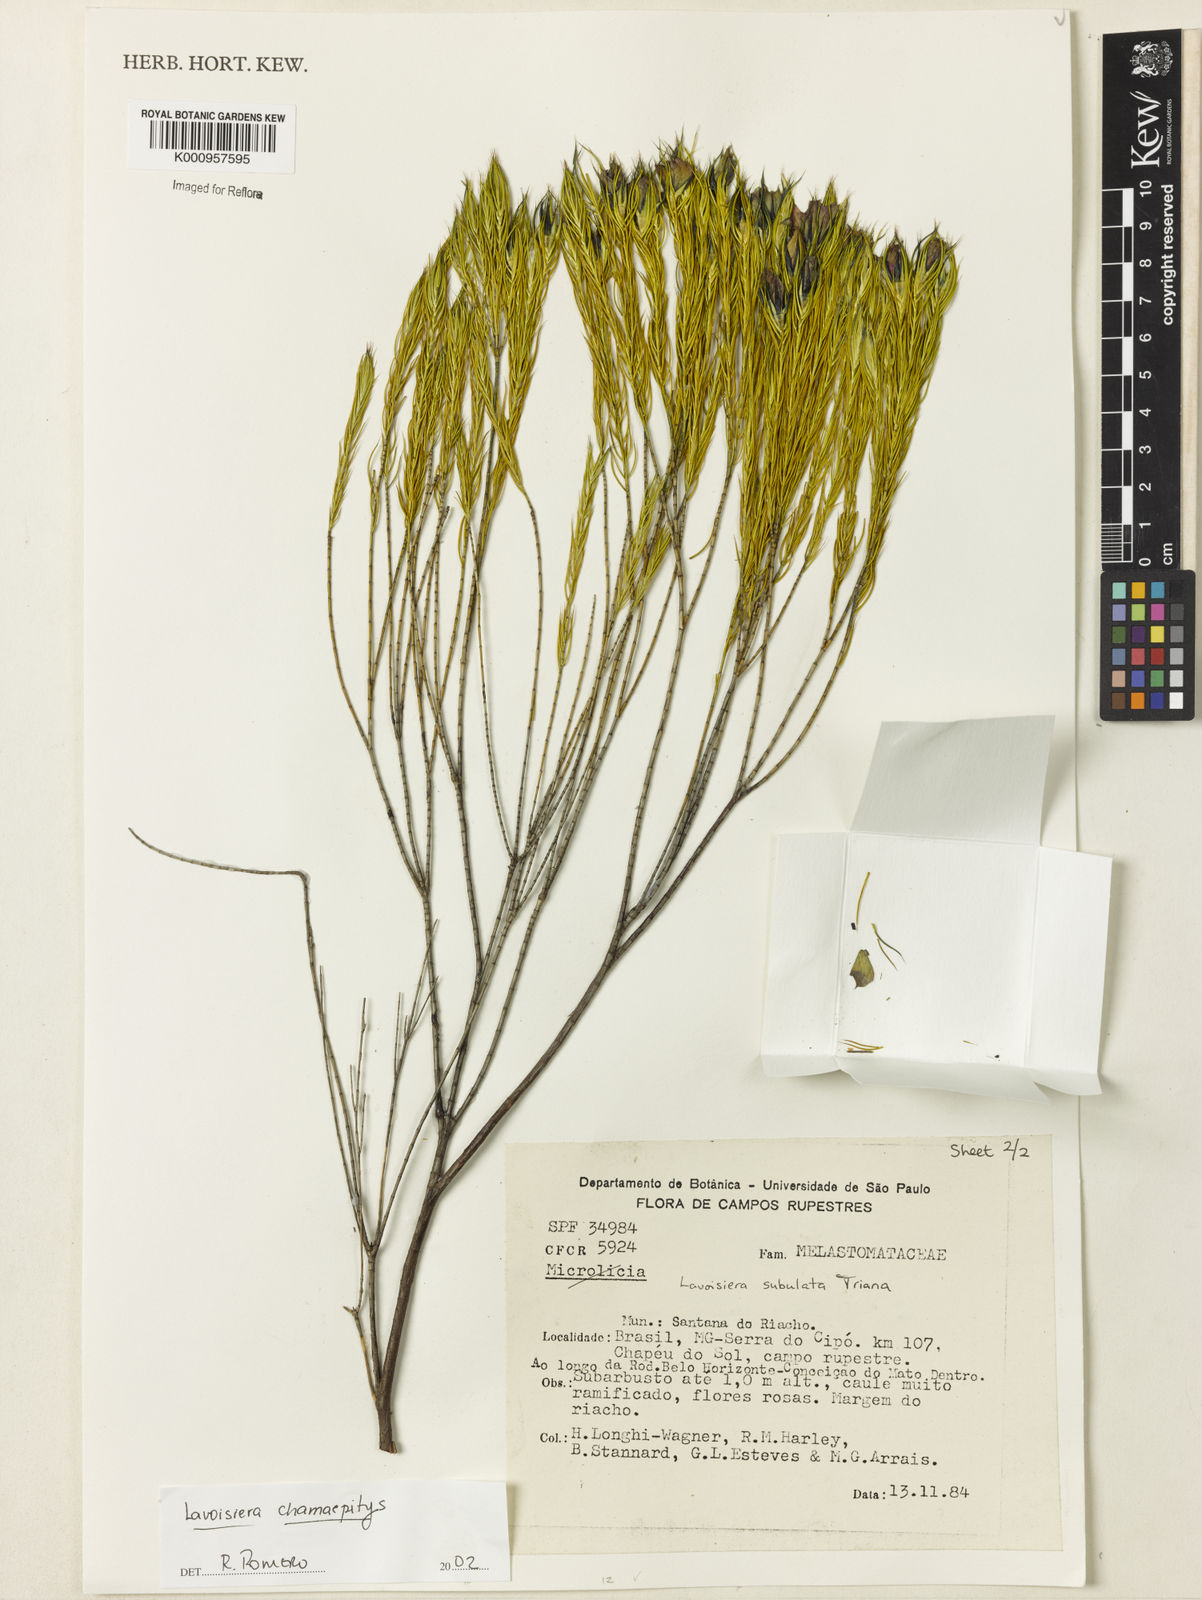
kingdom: Plantae
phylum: Tracheophyta
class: Magnoliopsida
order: Myrtales
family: Melastomataceae
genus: Microlicia
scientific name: Microlicia subulata
